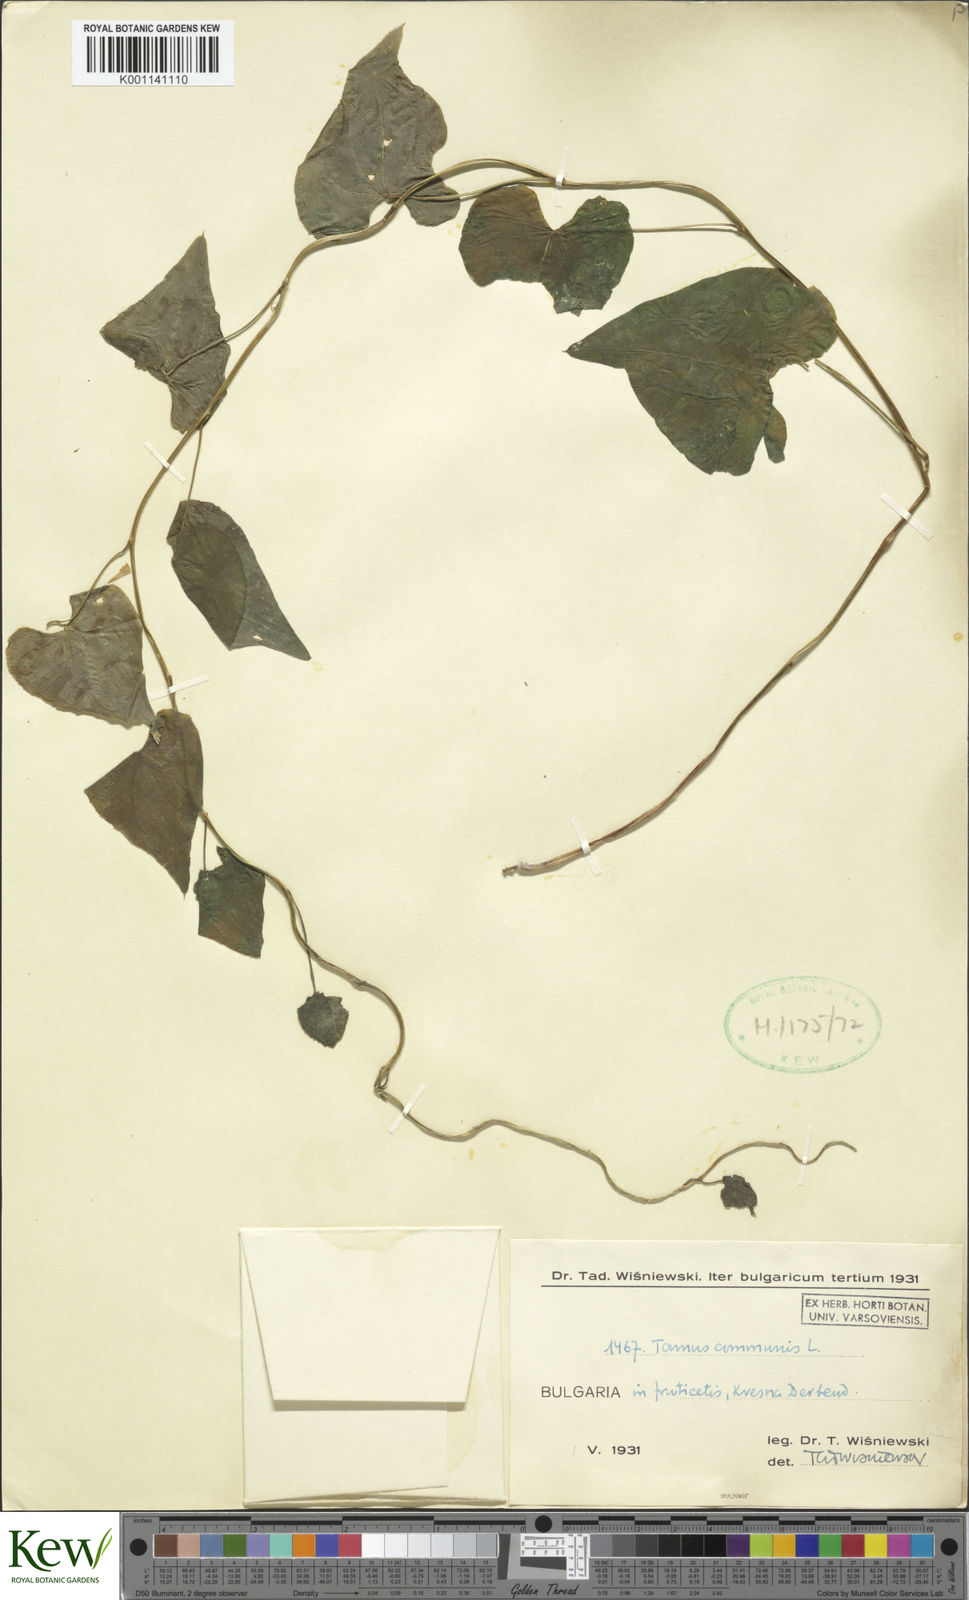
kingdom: Plantae
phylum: Tracheophyta
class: Liliopsida
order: Dioscoreales
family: Dioscoreaceae
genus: Dioscorea
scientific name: Dioscorea communis
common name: Black-bindweed
